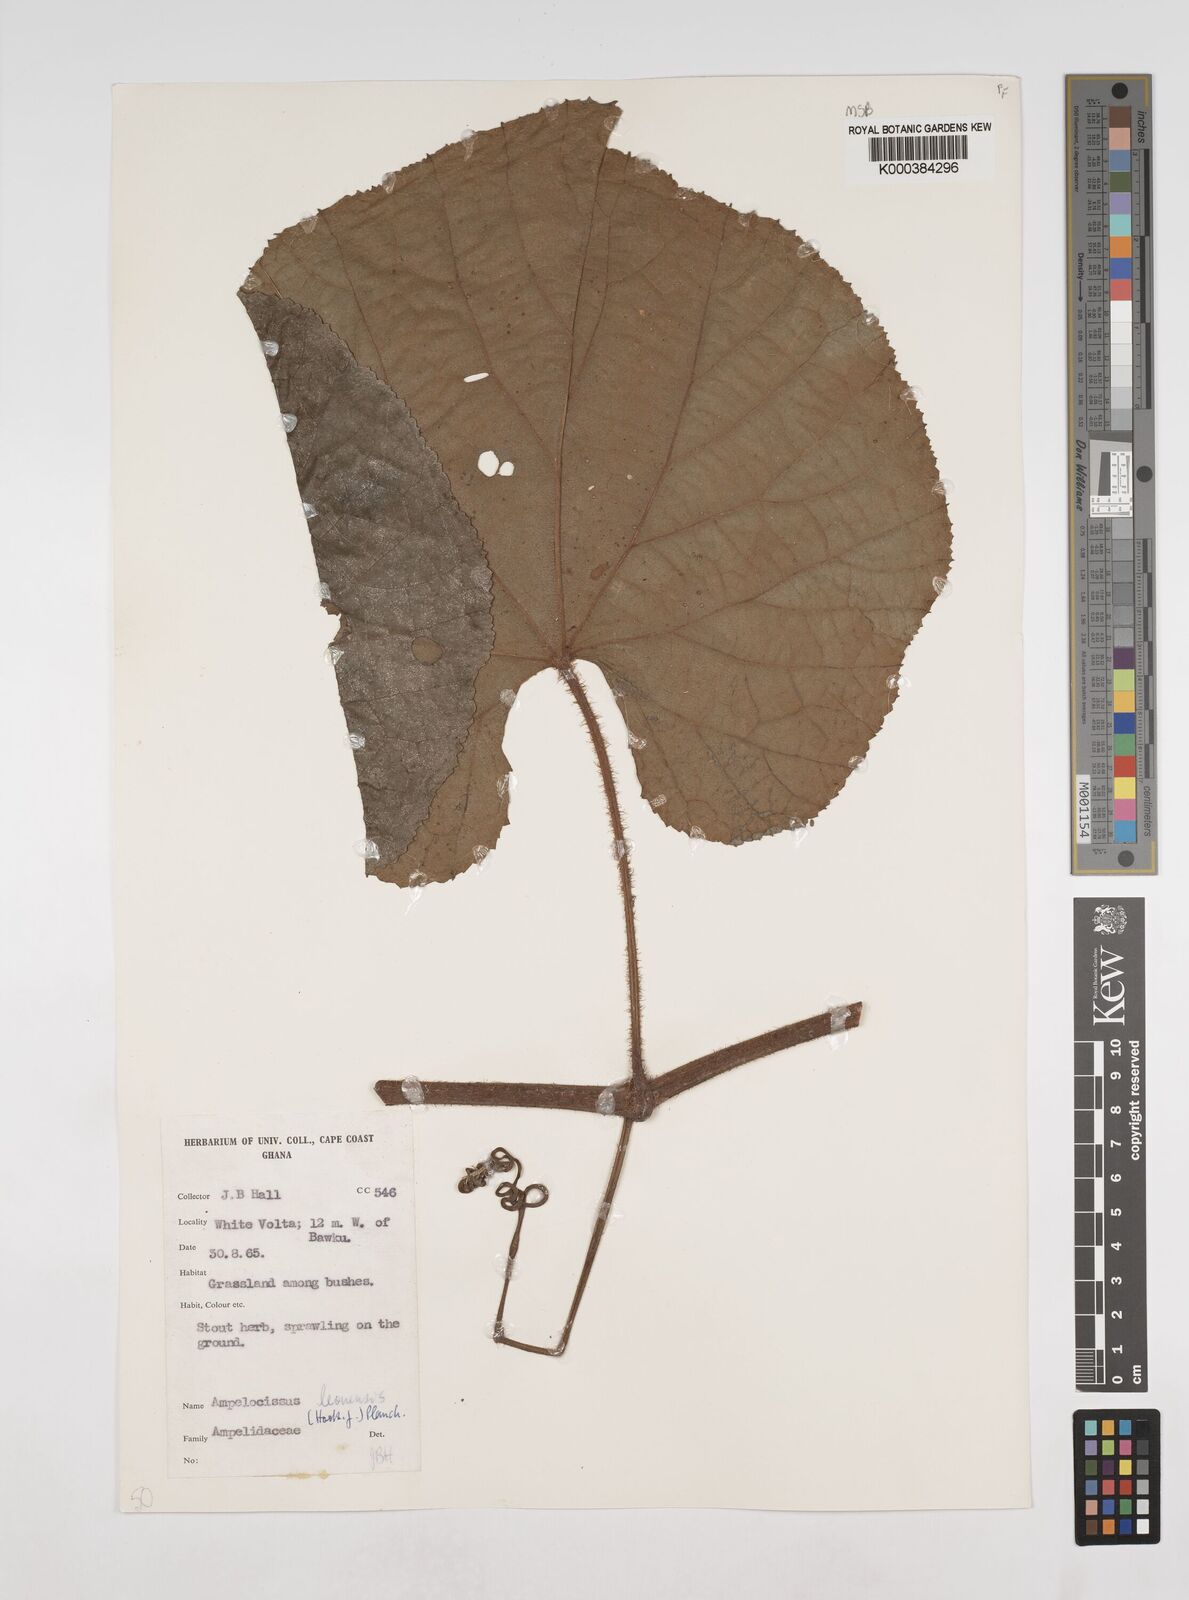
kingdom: Plantae
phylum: Tracheophyta
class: Magnoliopsida
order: Vitales
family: Vitaceae
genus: Ampelocissus
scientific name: Ampelocissus leonensis
